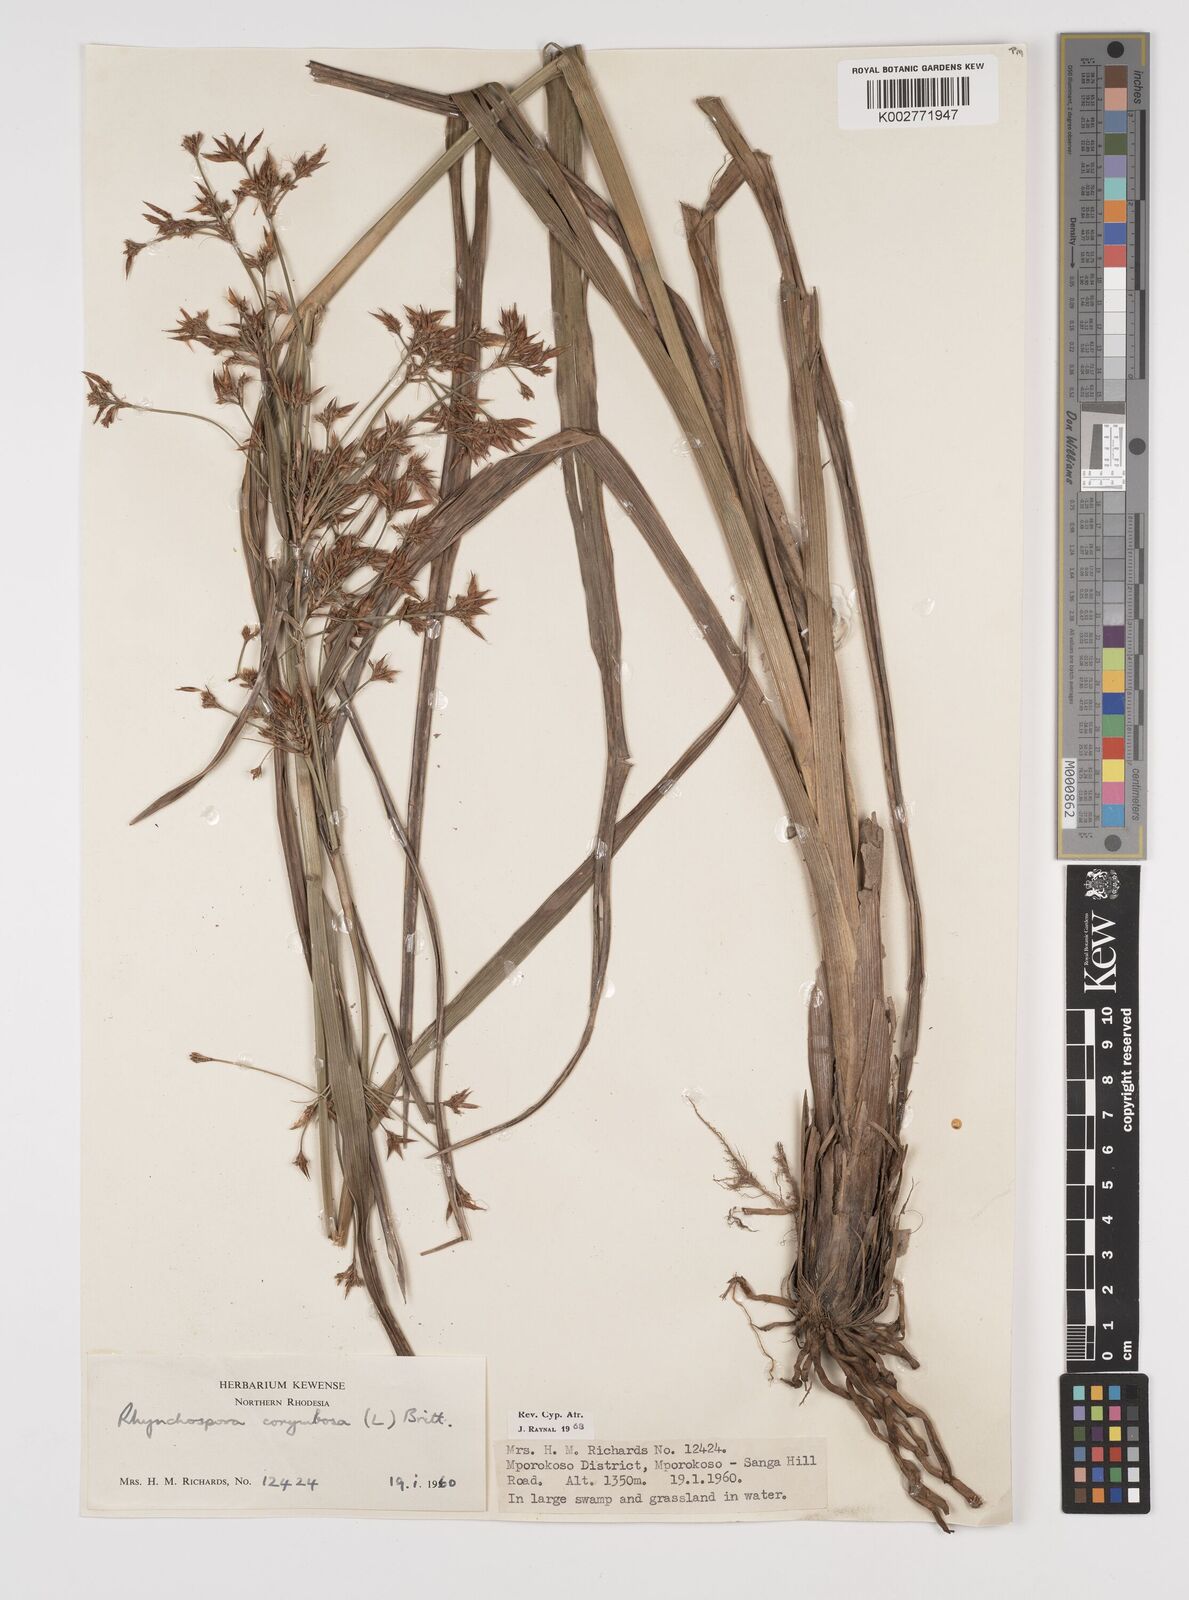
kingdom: Plantae
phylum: Tracheophyta
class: Liliopsida
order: Poales
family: Cyperaceae
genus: Rhynchospora
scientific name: Rhynchospora corymbosa
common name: Golden beak sedge
